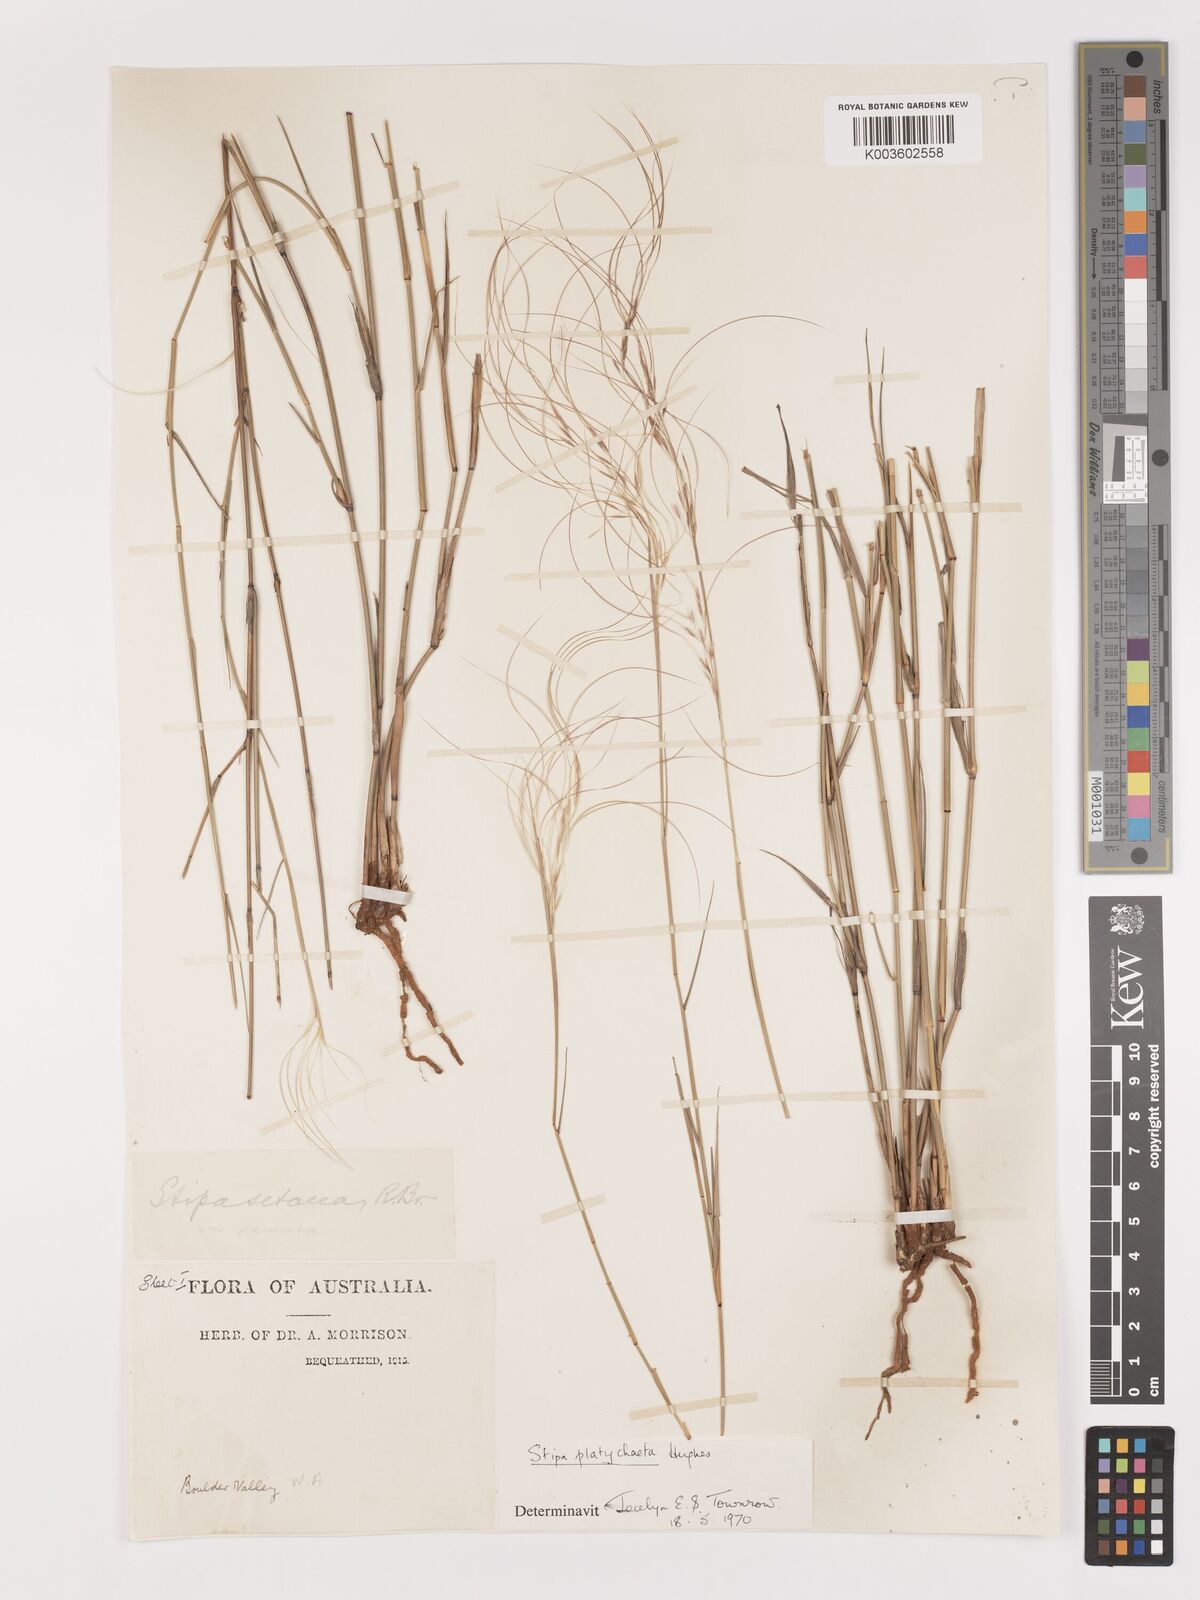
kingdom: Plantae
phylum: Tracheophyta
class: Liliopsida
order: Poales
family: Poaceae
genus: Austrostipa
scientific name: Austrostipa platychaeta
